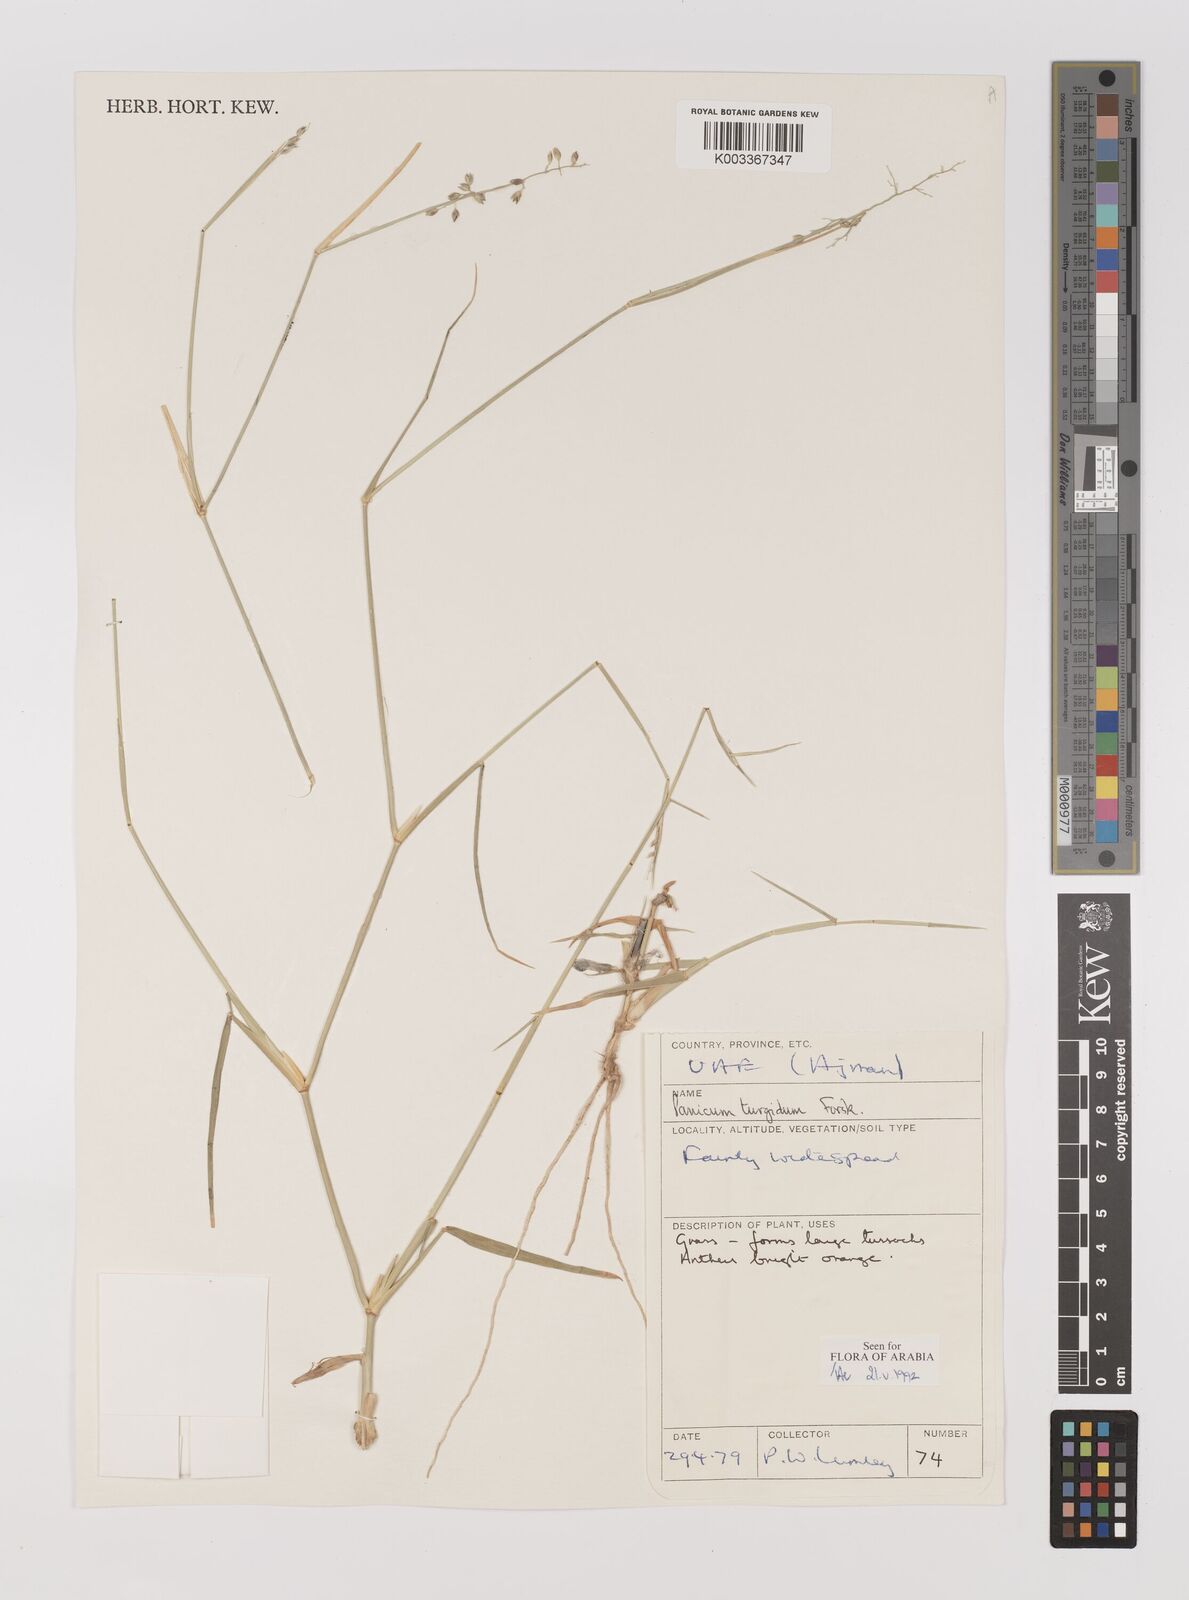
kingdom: Plantae
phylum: Tracheophyta
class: Liliopsida
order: Poales
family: Poaceae
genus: Panicum
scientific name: Panicum turgidum
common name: Desert grass
